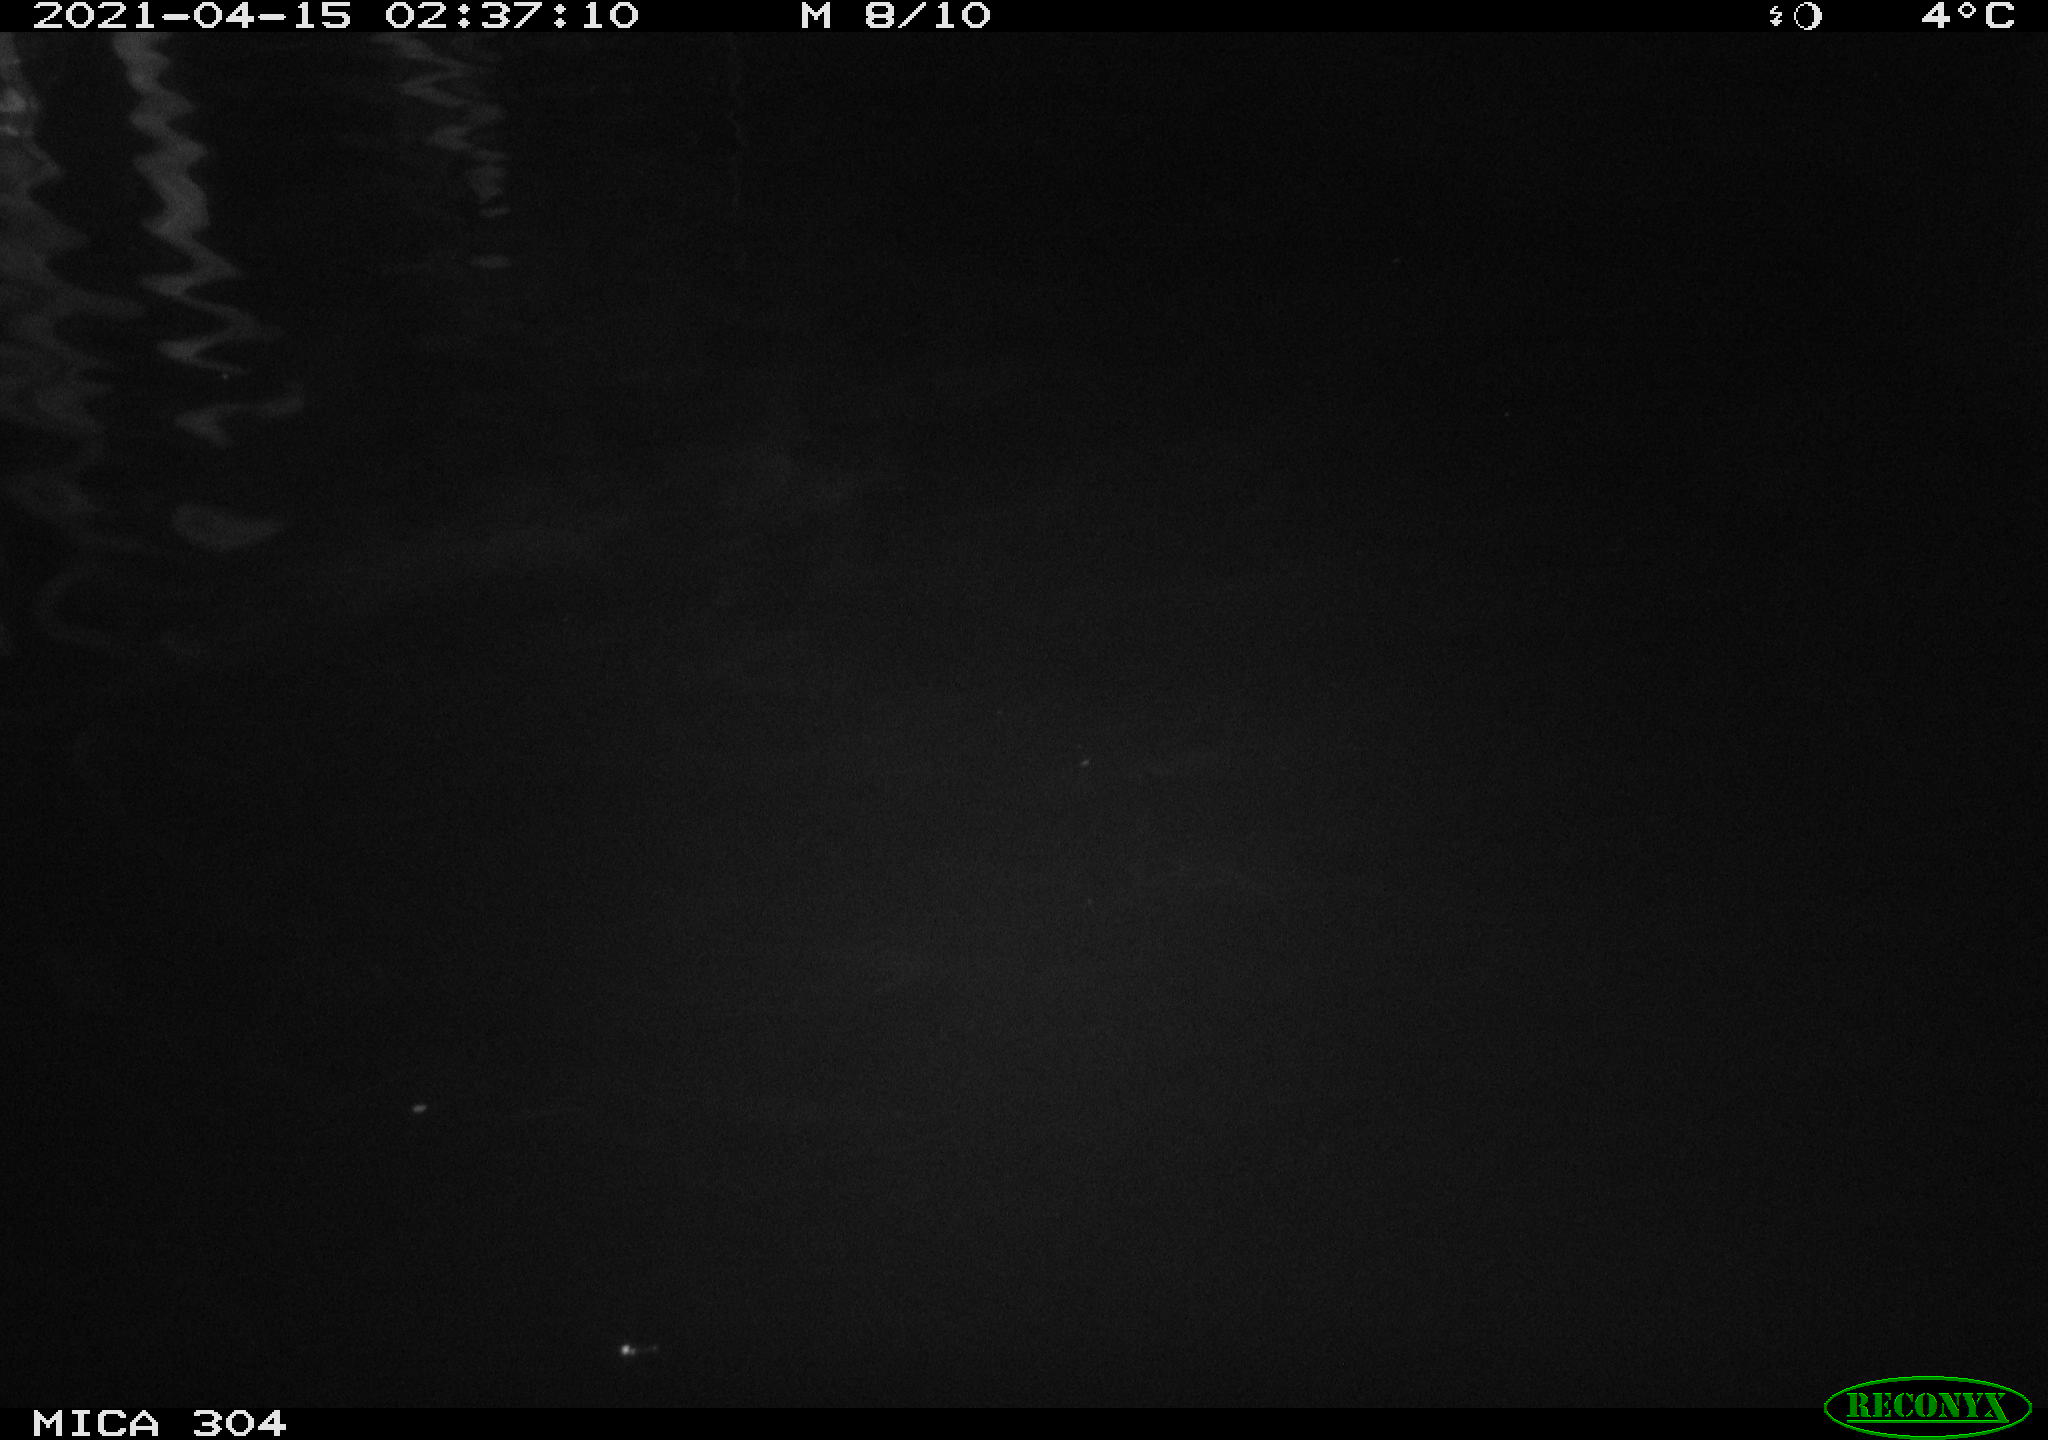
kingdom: Animalia
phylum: Chordata
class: Aves
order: Anseriformes
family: Anatidae
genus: Anas
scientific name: Anas
